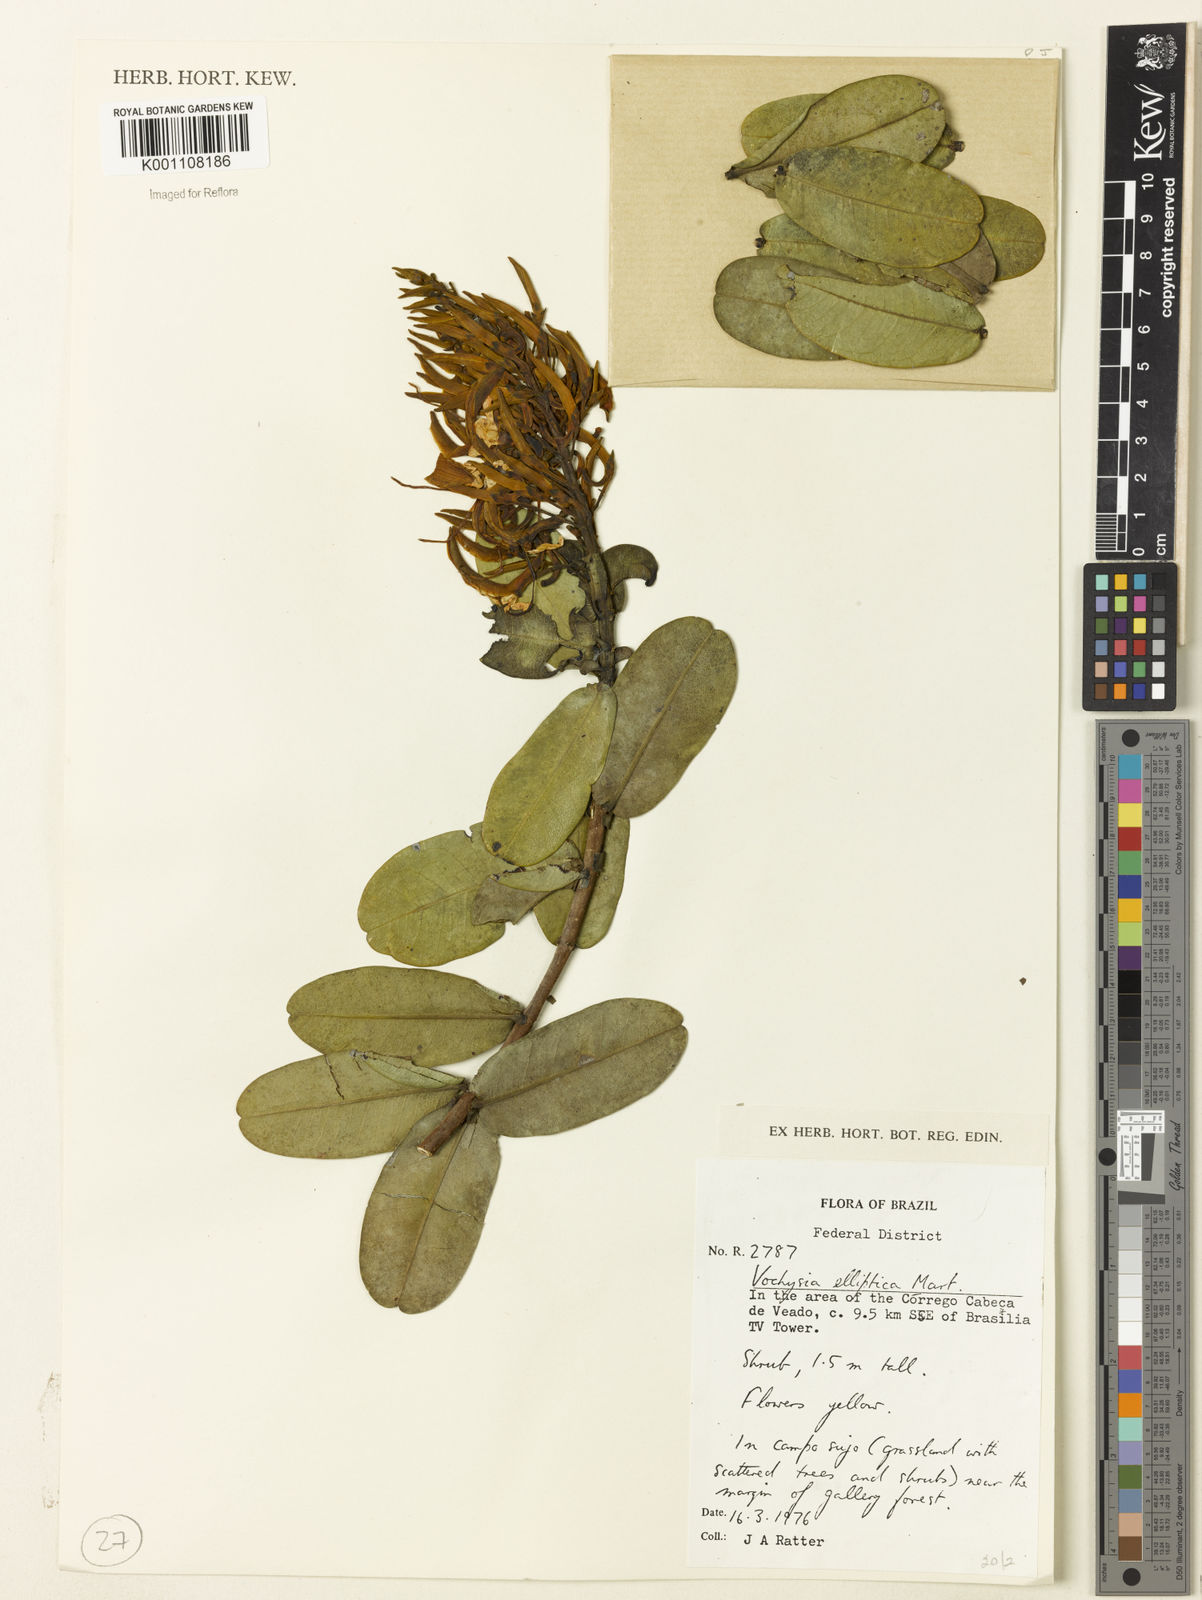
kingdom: Plantae
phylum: Tracheophyta
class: Magnoliopsida
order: Myrtales
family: Vochysiaceae
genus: Vochysia
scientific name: Vochysia elliptica
